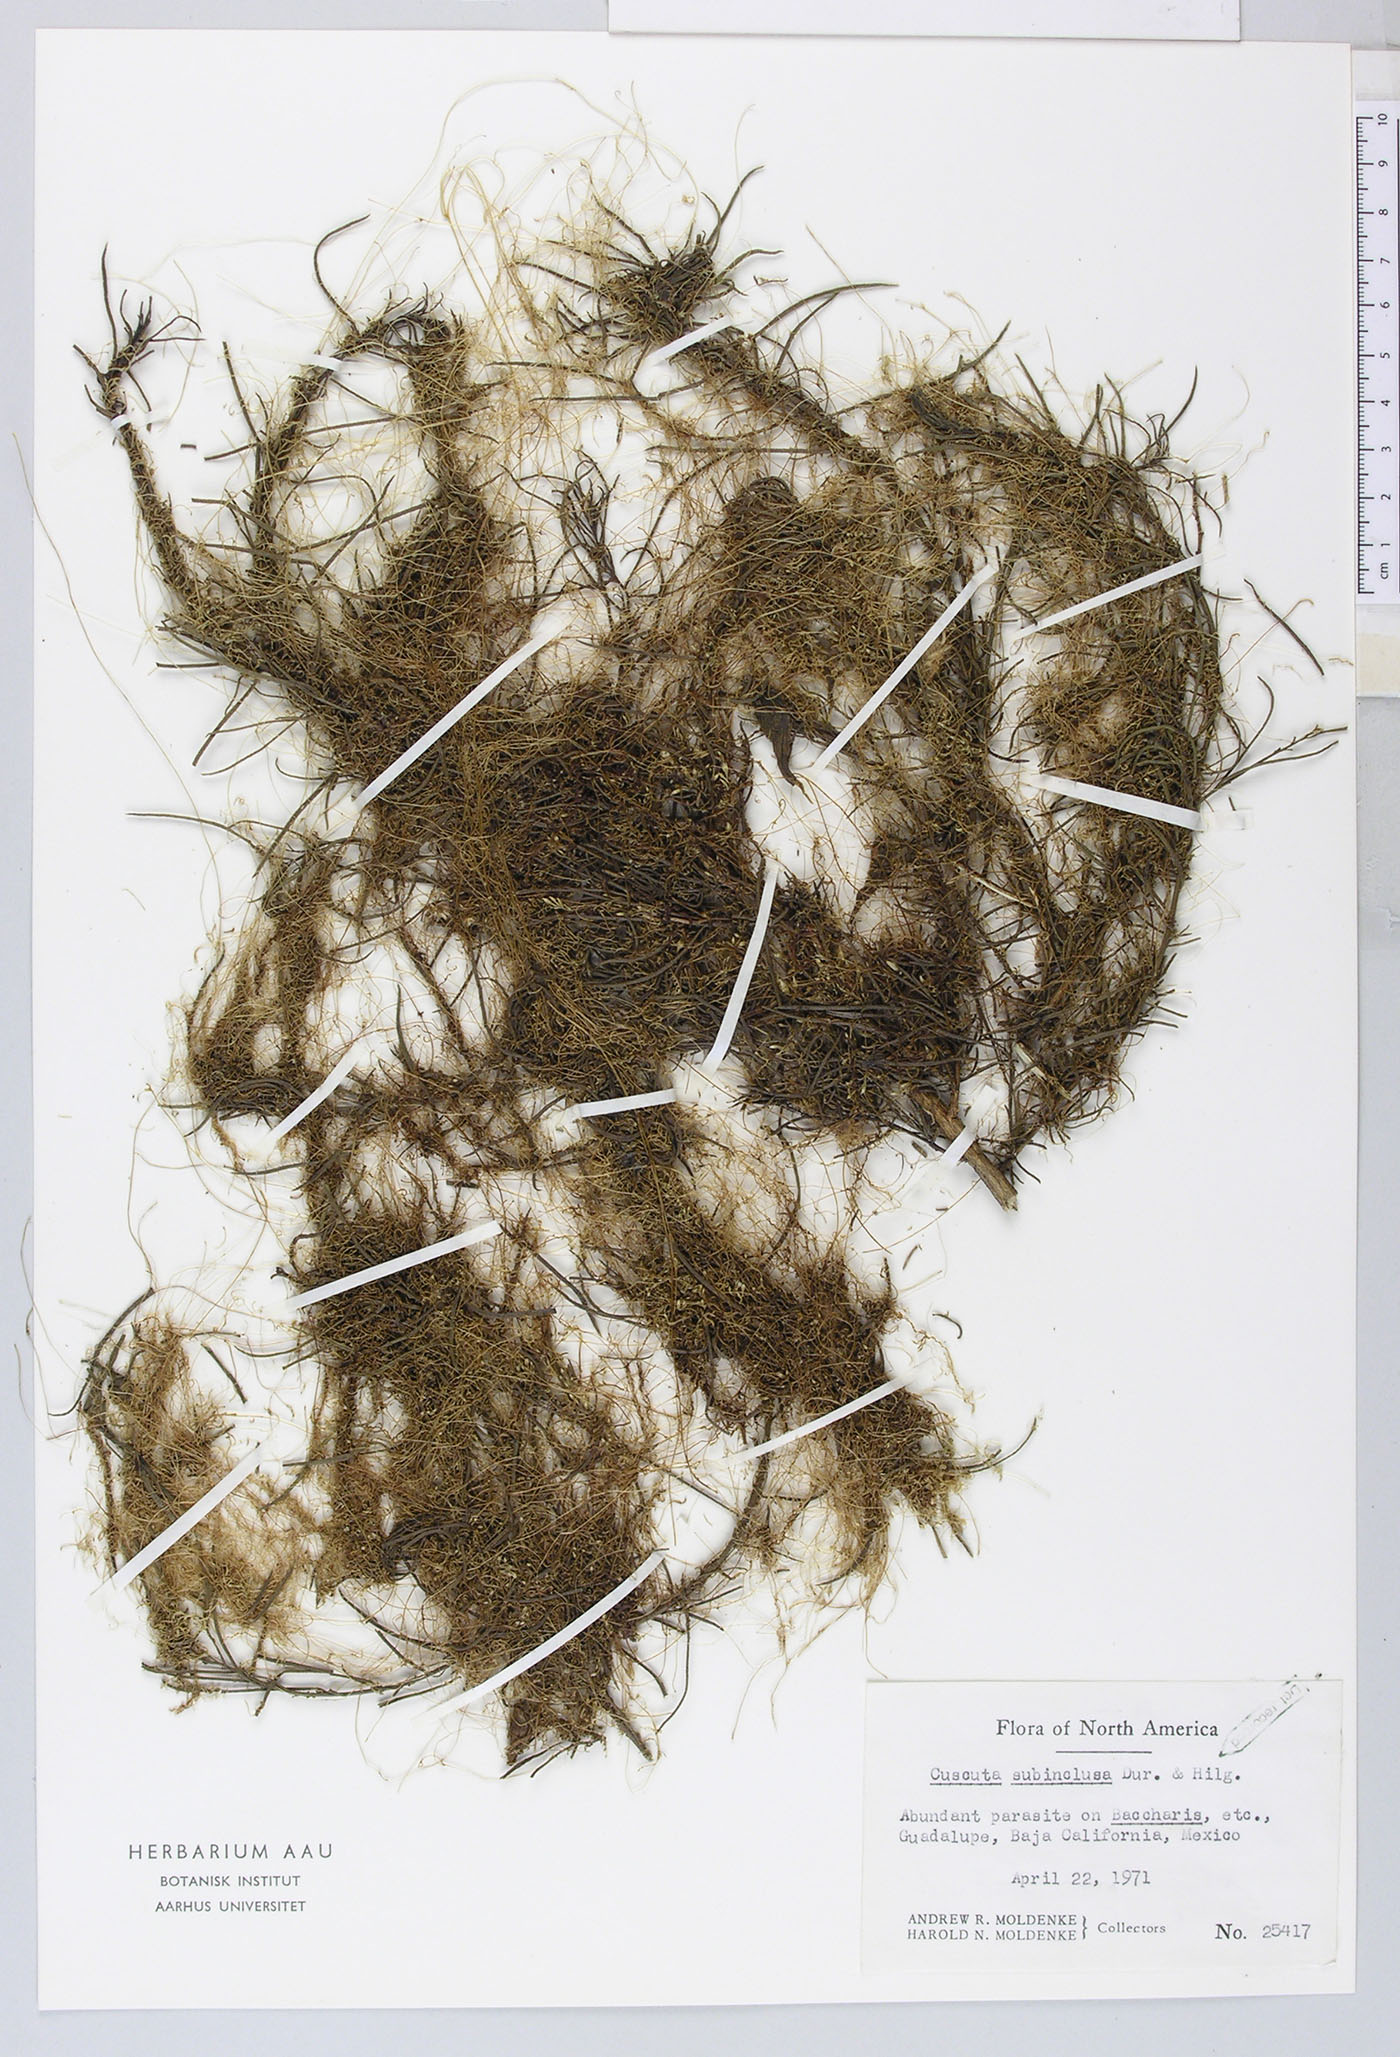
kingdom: Plantae
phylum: Tracheophyta
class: Magnoliopsida
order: Solanales
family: Convolvulaceae
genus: Cuscuta
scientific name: Cuscuta subinclusa
